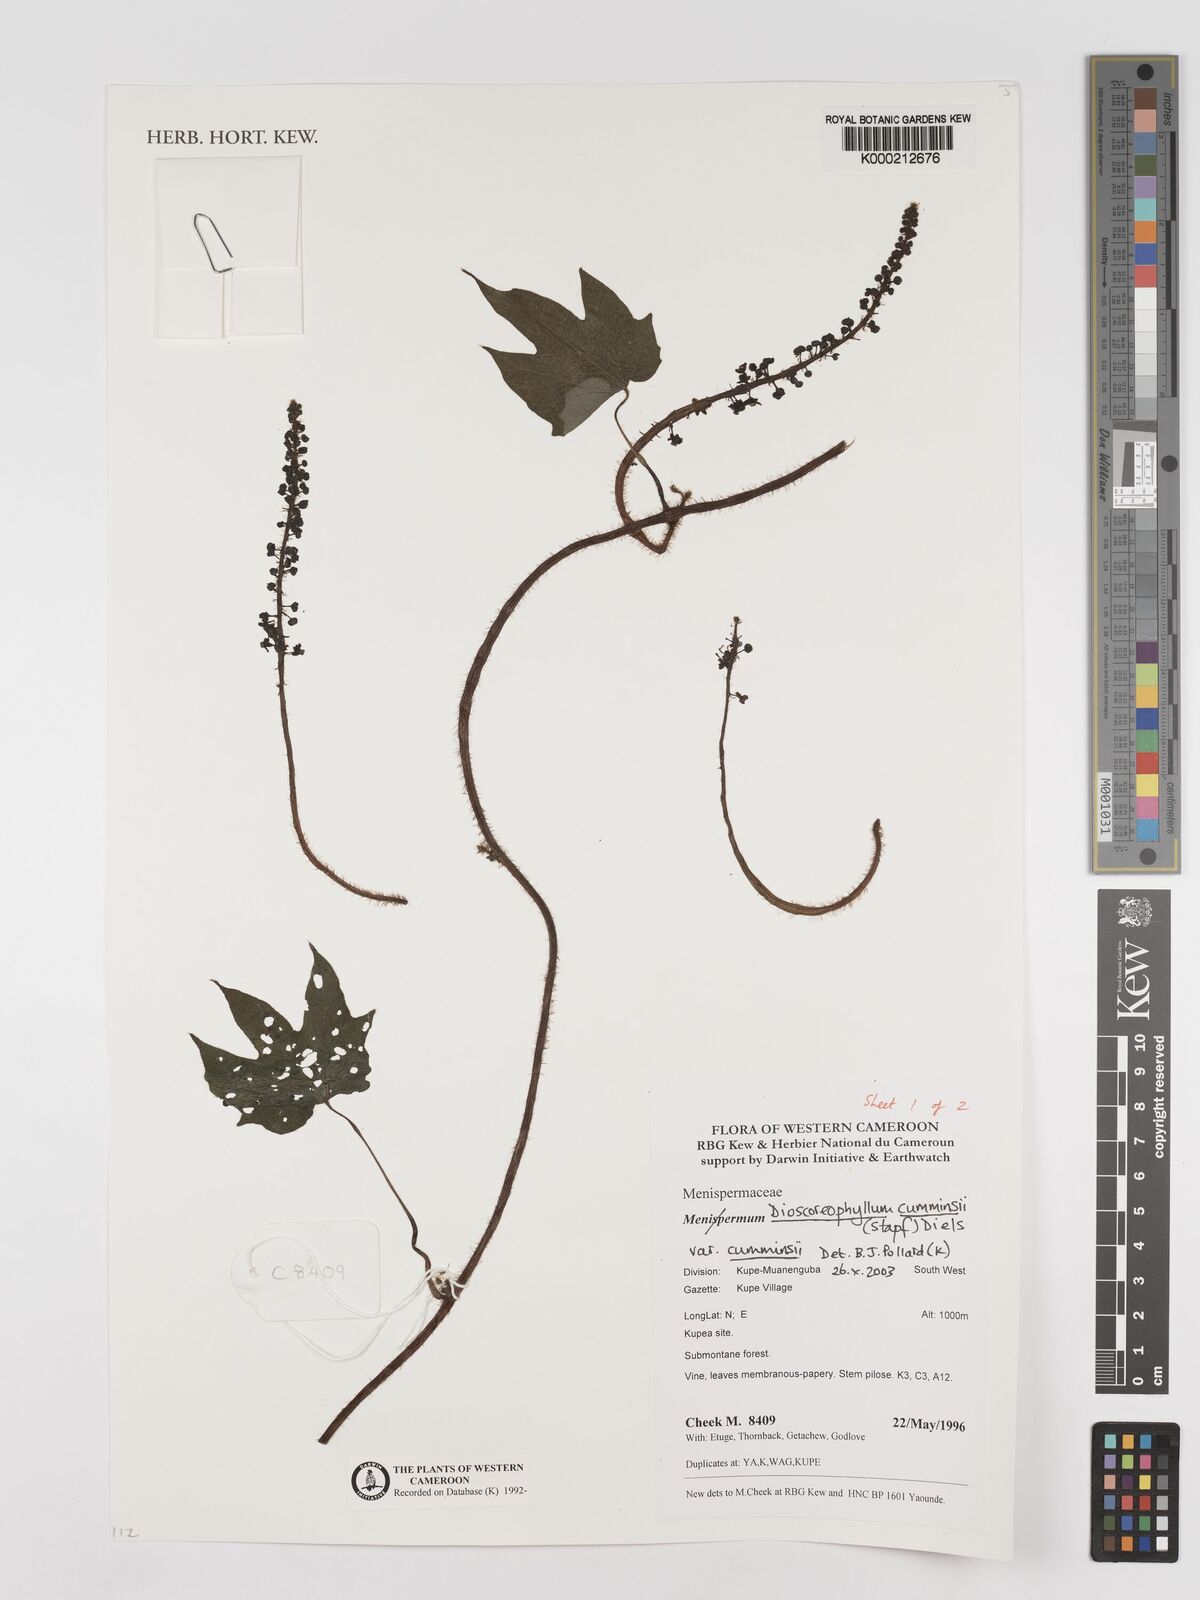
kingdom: Plantae
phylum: Tracheophyta
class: Magnoliopsida
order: Ranunculales
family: Menispermaceae
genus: Dioscoreophyllum
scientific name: Dioscoreophyllum volkensii
